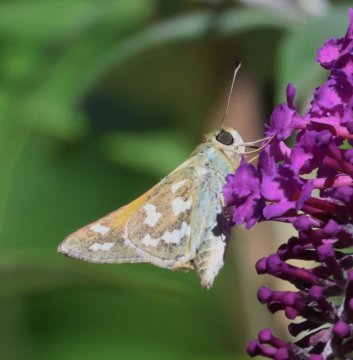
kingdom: Animalia
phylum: Arthropoda
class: Insecta
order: Lepidoptera
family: Hesperiidae
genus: Hesperia
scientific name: Hesperia lindseyi
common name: Lindsey's Skipper
